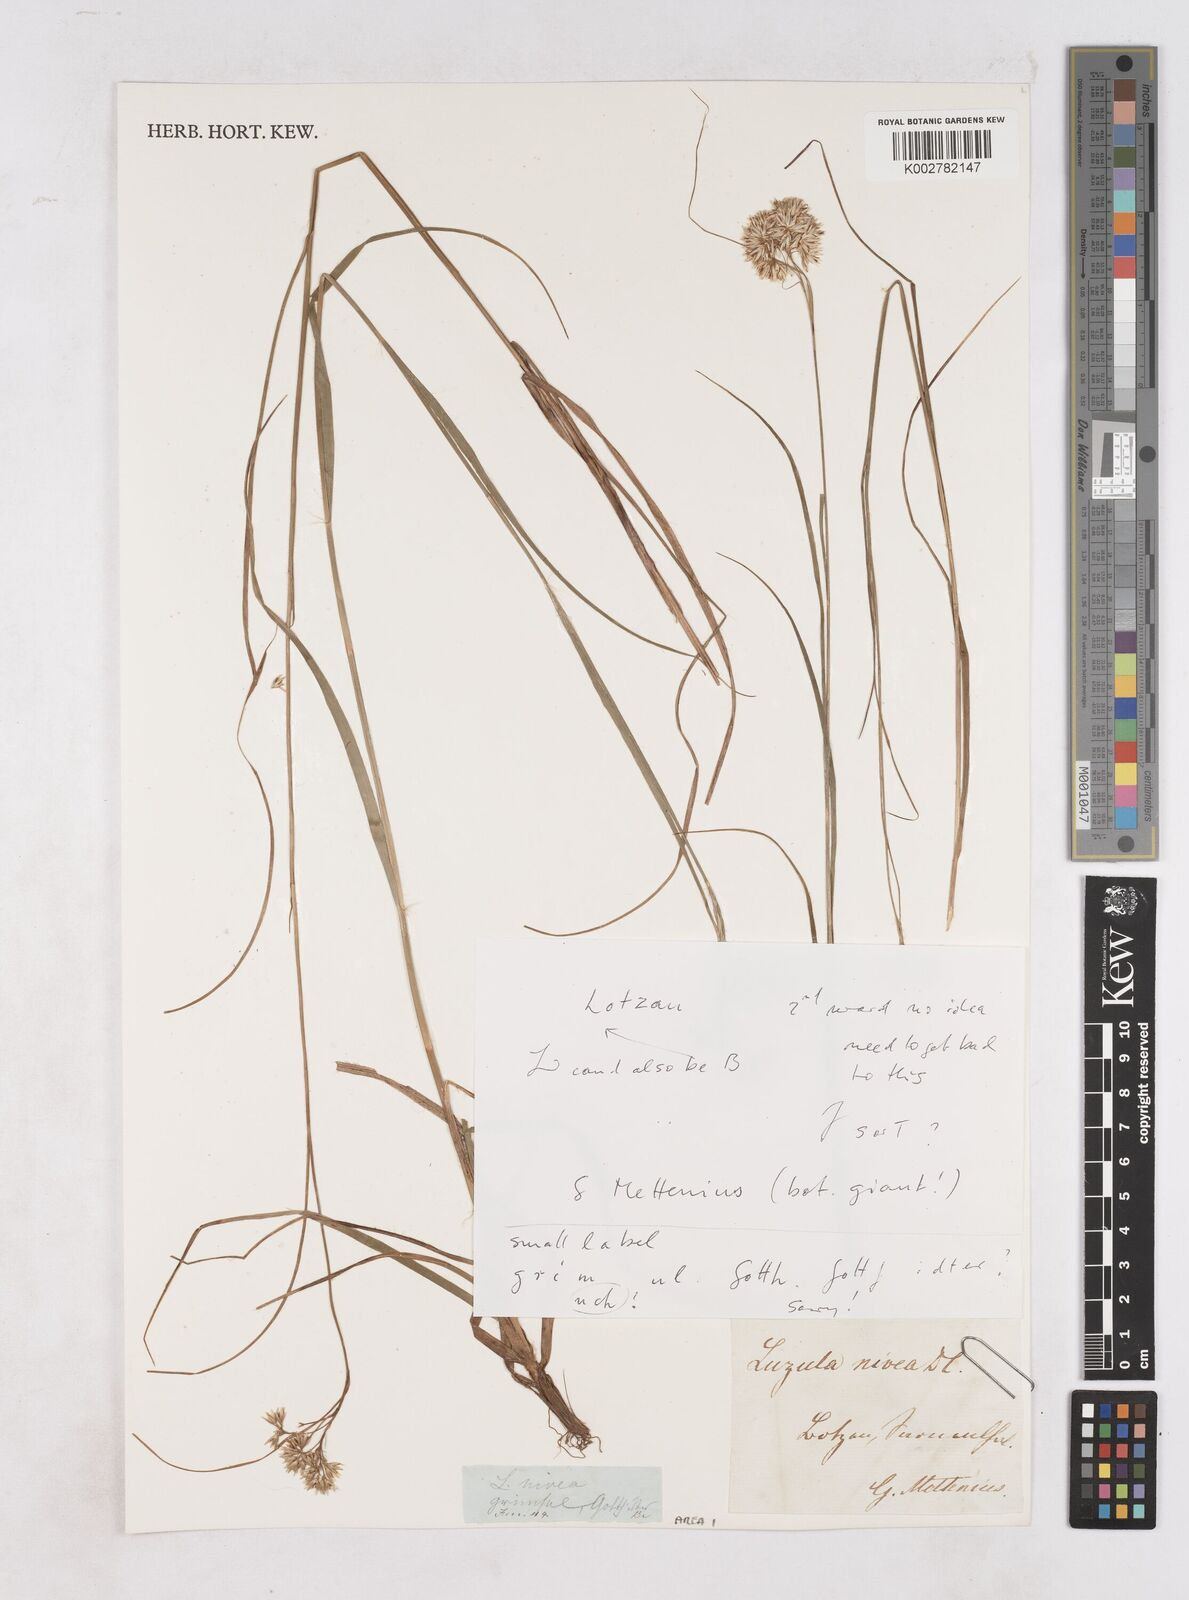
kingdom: Plantae
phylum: Tracheophyta
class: Liliopsida
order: Poales
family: Juncaceae
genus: Luzula
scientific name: Luzula nivea
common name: Snow-white wood-rush
